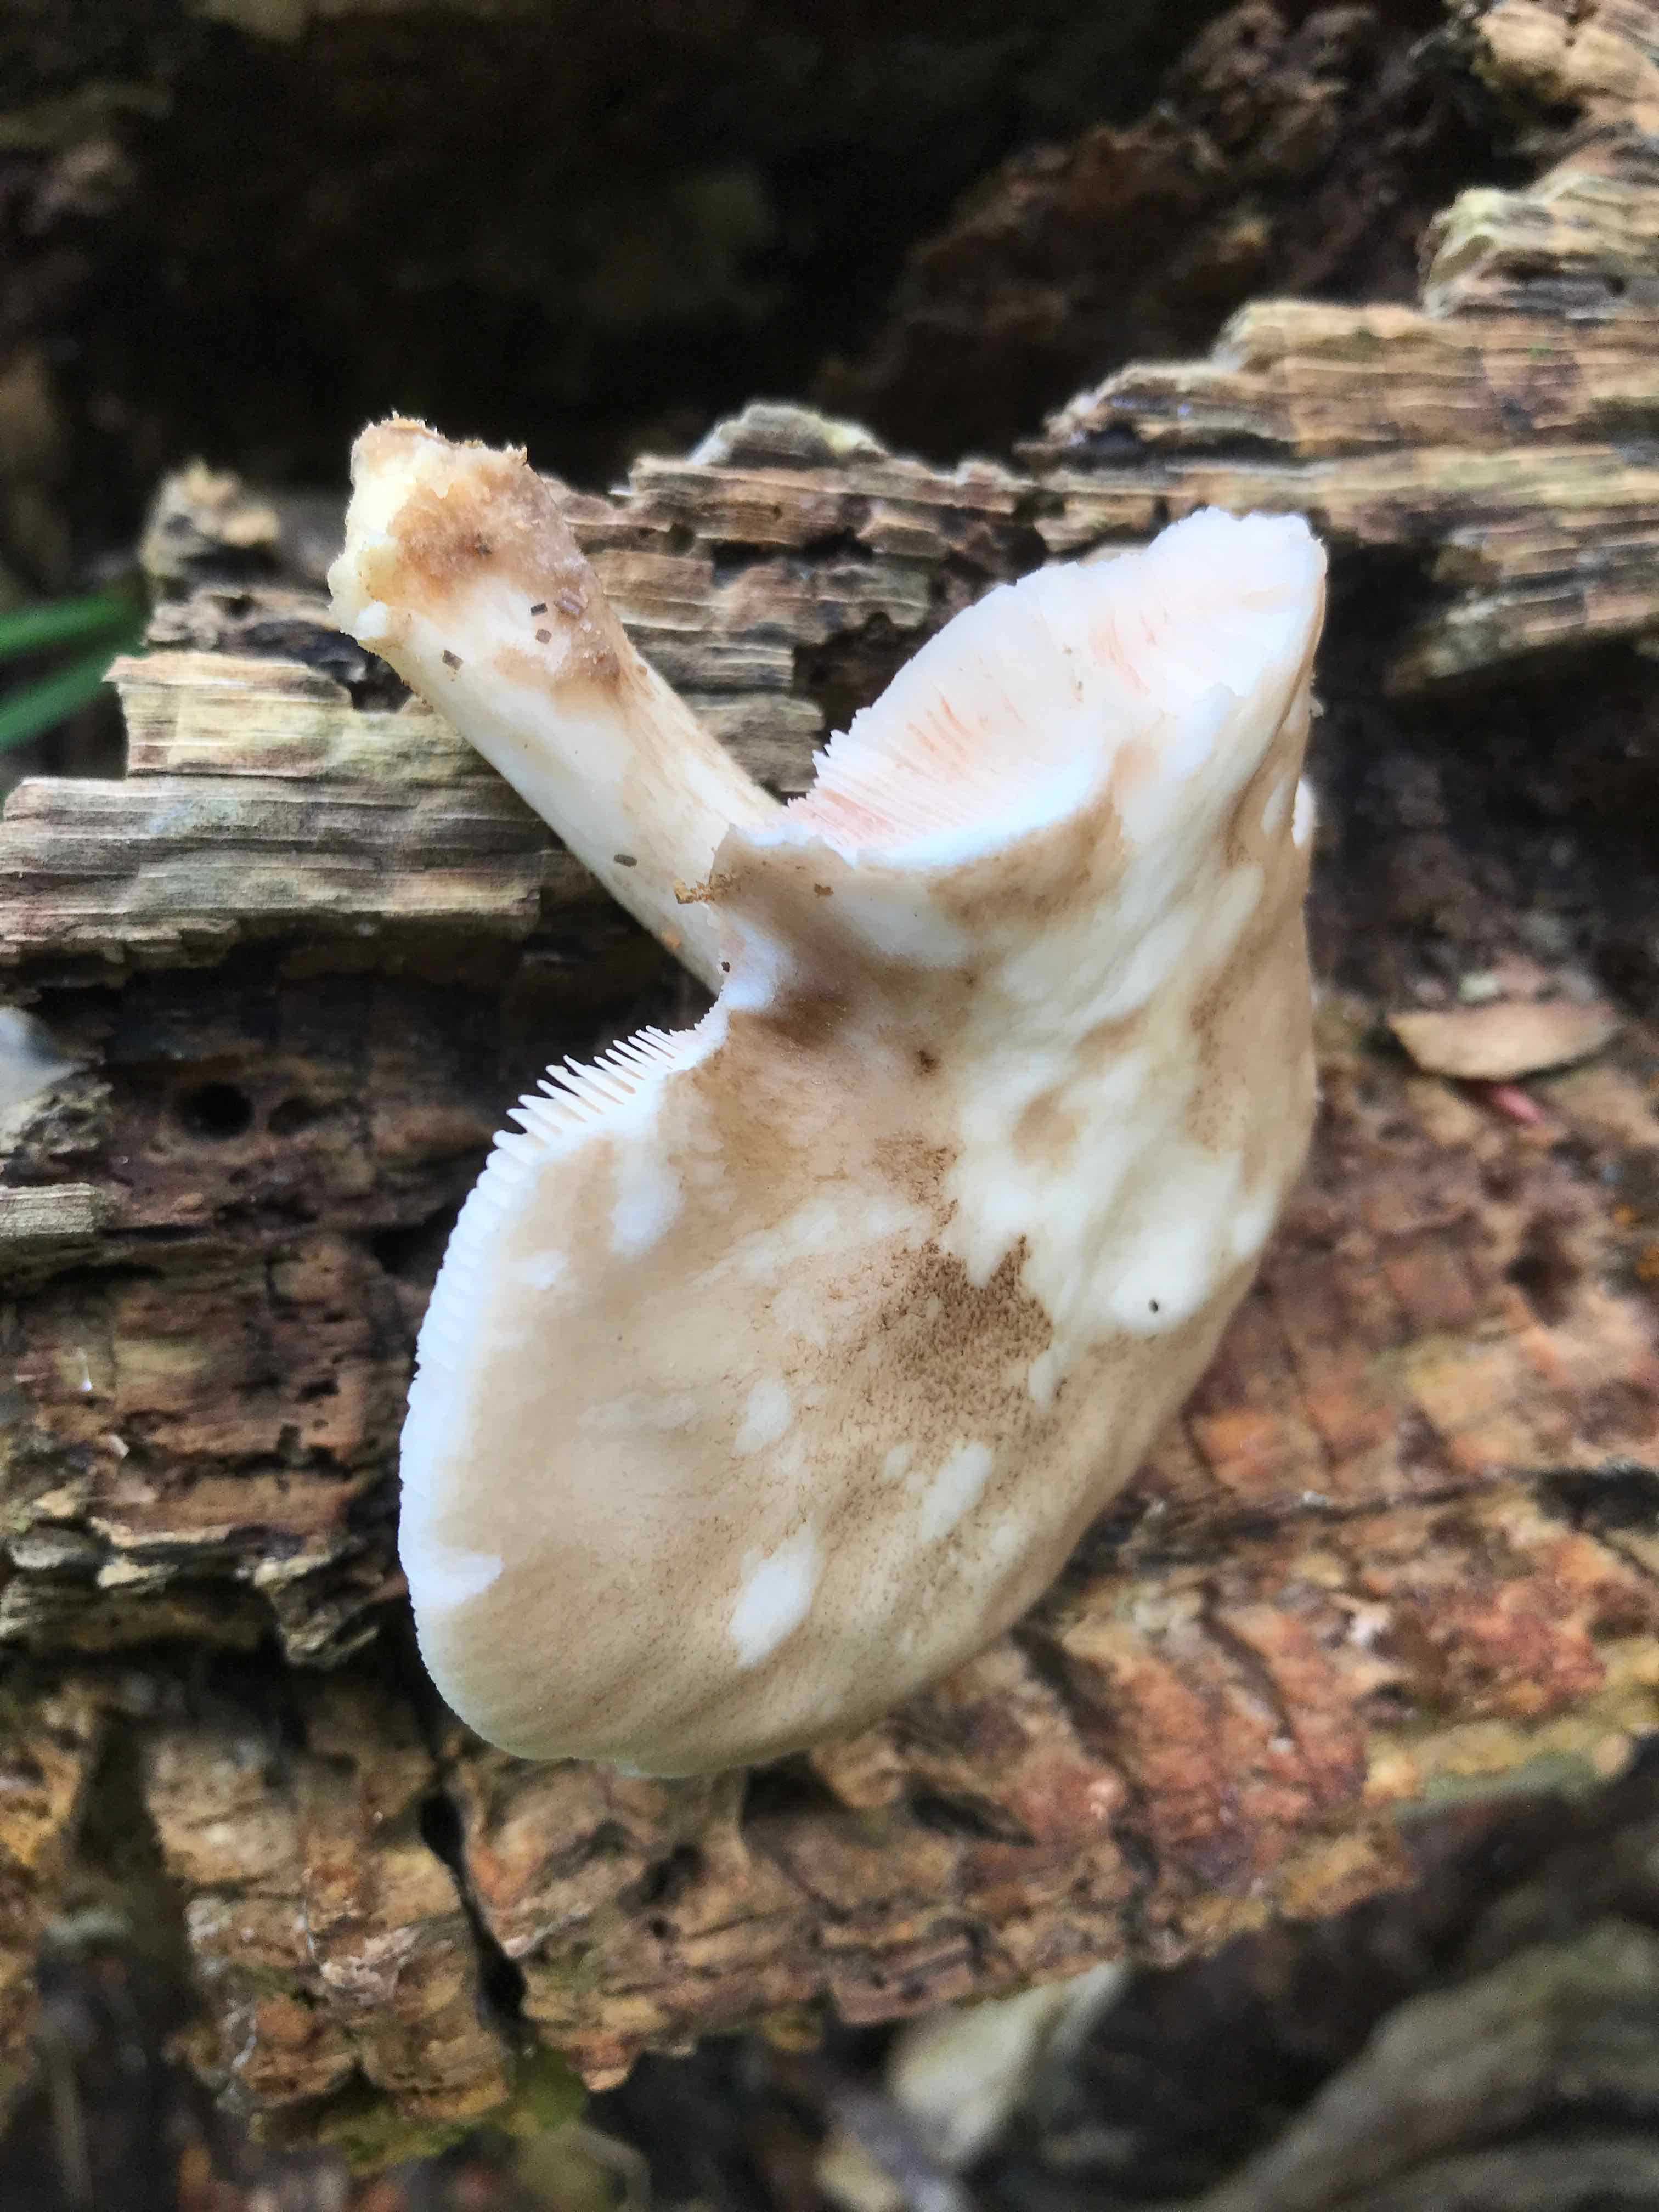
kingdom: Fungi
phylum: Basidiomycota
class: Agaricomycetes
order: Agaricales
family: Pluteaceae
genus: Pluteus
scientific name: Pluteus cervinus
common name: sodfarvet skærmhat
